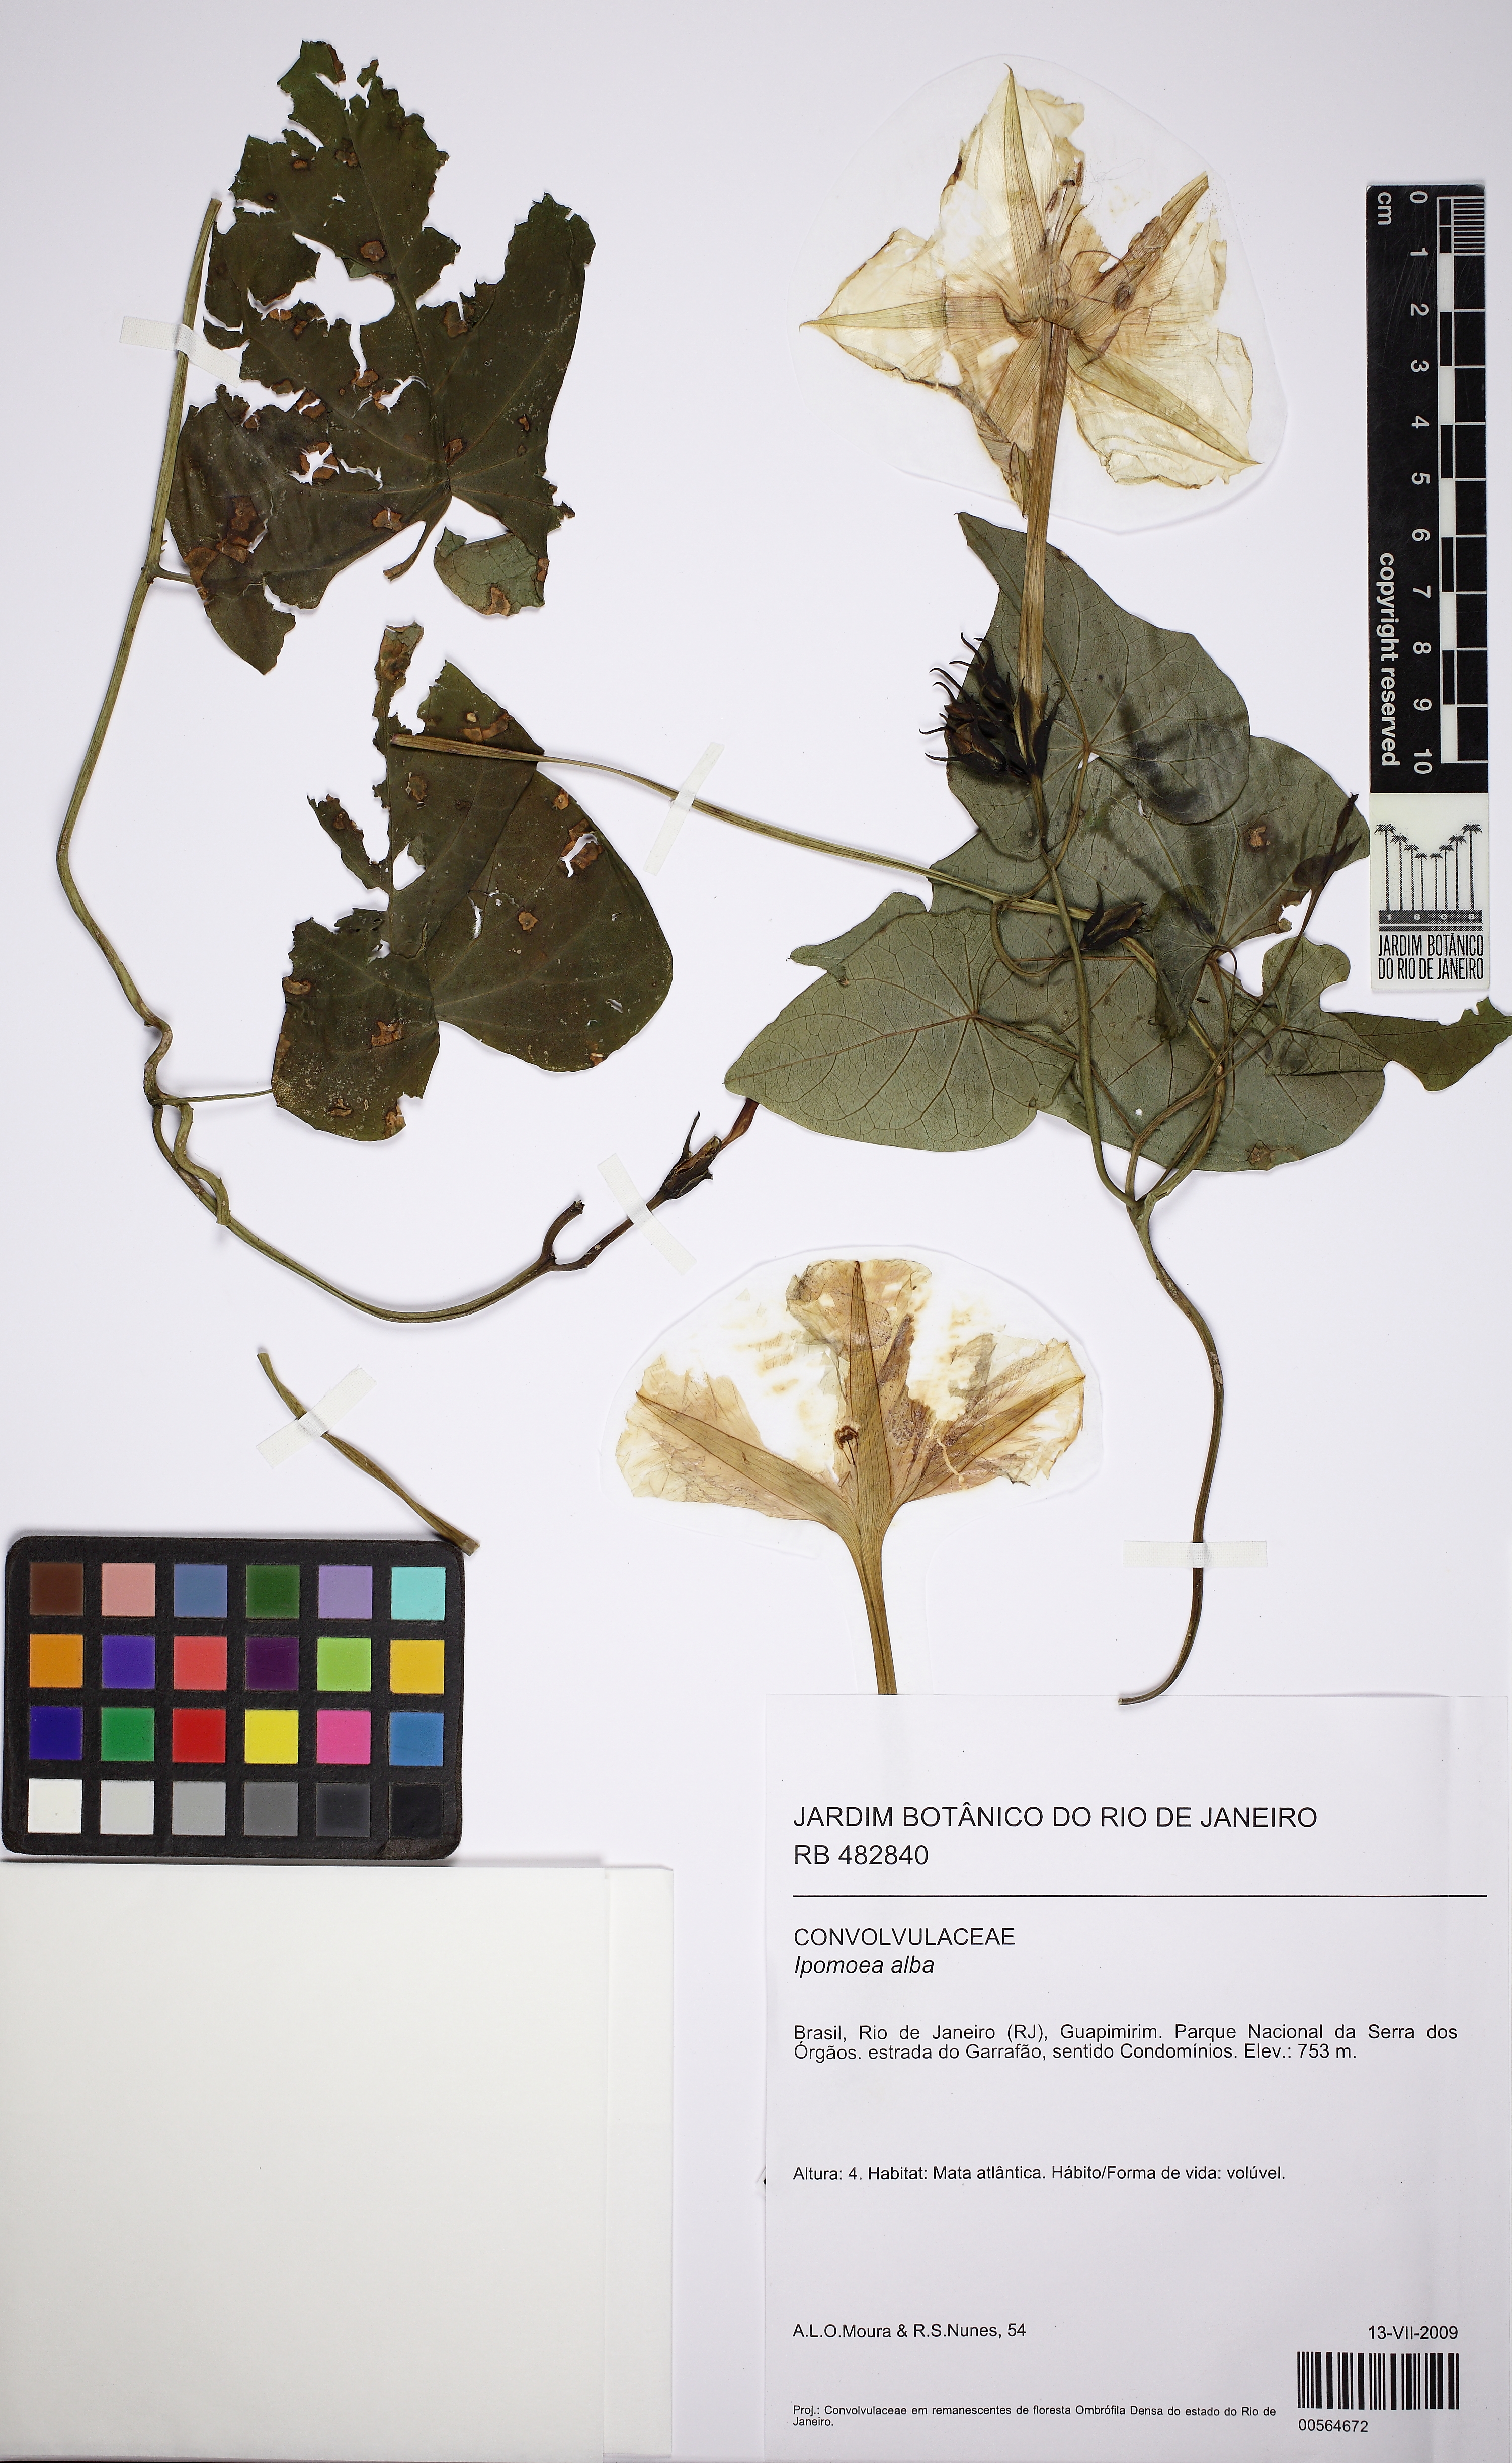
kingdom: Plantae
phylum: Tracheophyta
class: Magnoliopsida
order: Solanales
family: Convolvulaceae
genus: Ipomoea
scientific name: Ipomoea alba
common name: Moonflower
